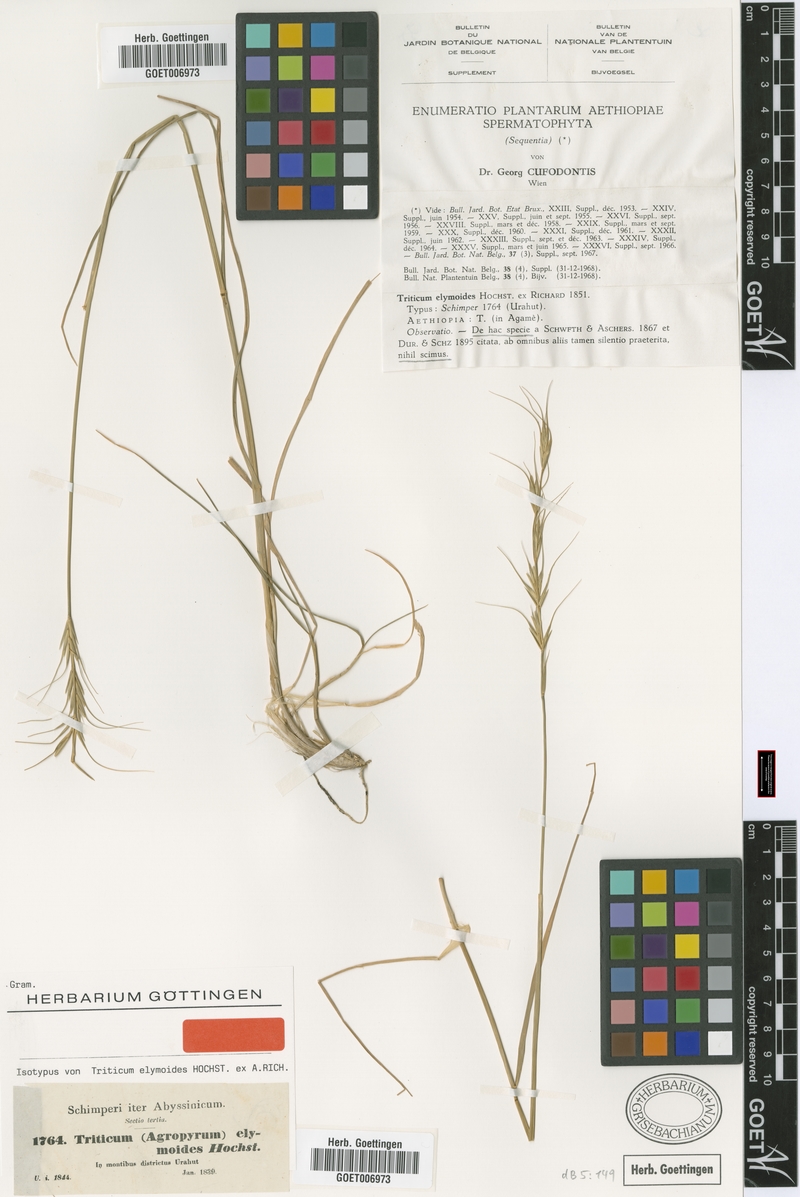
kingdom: Plantae
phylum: Tracheophyta
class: Liliopsida
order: Poales
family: Poaceae
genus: Elymus
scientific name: Elymus africanus
